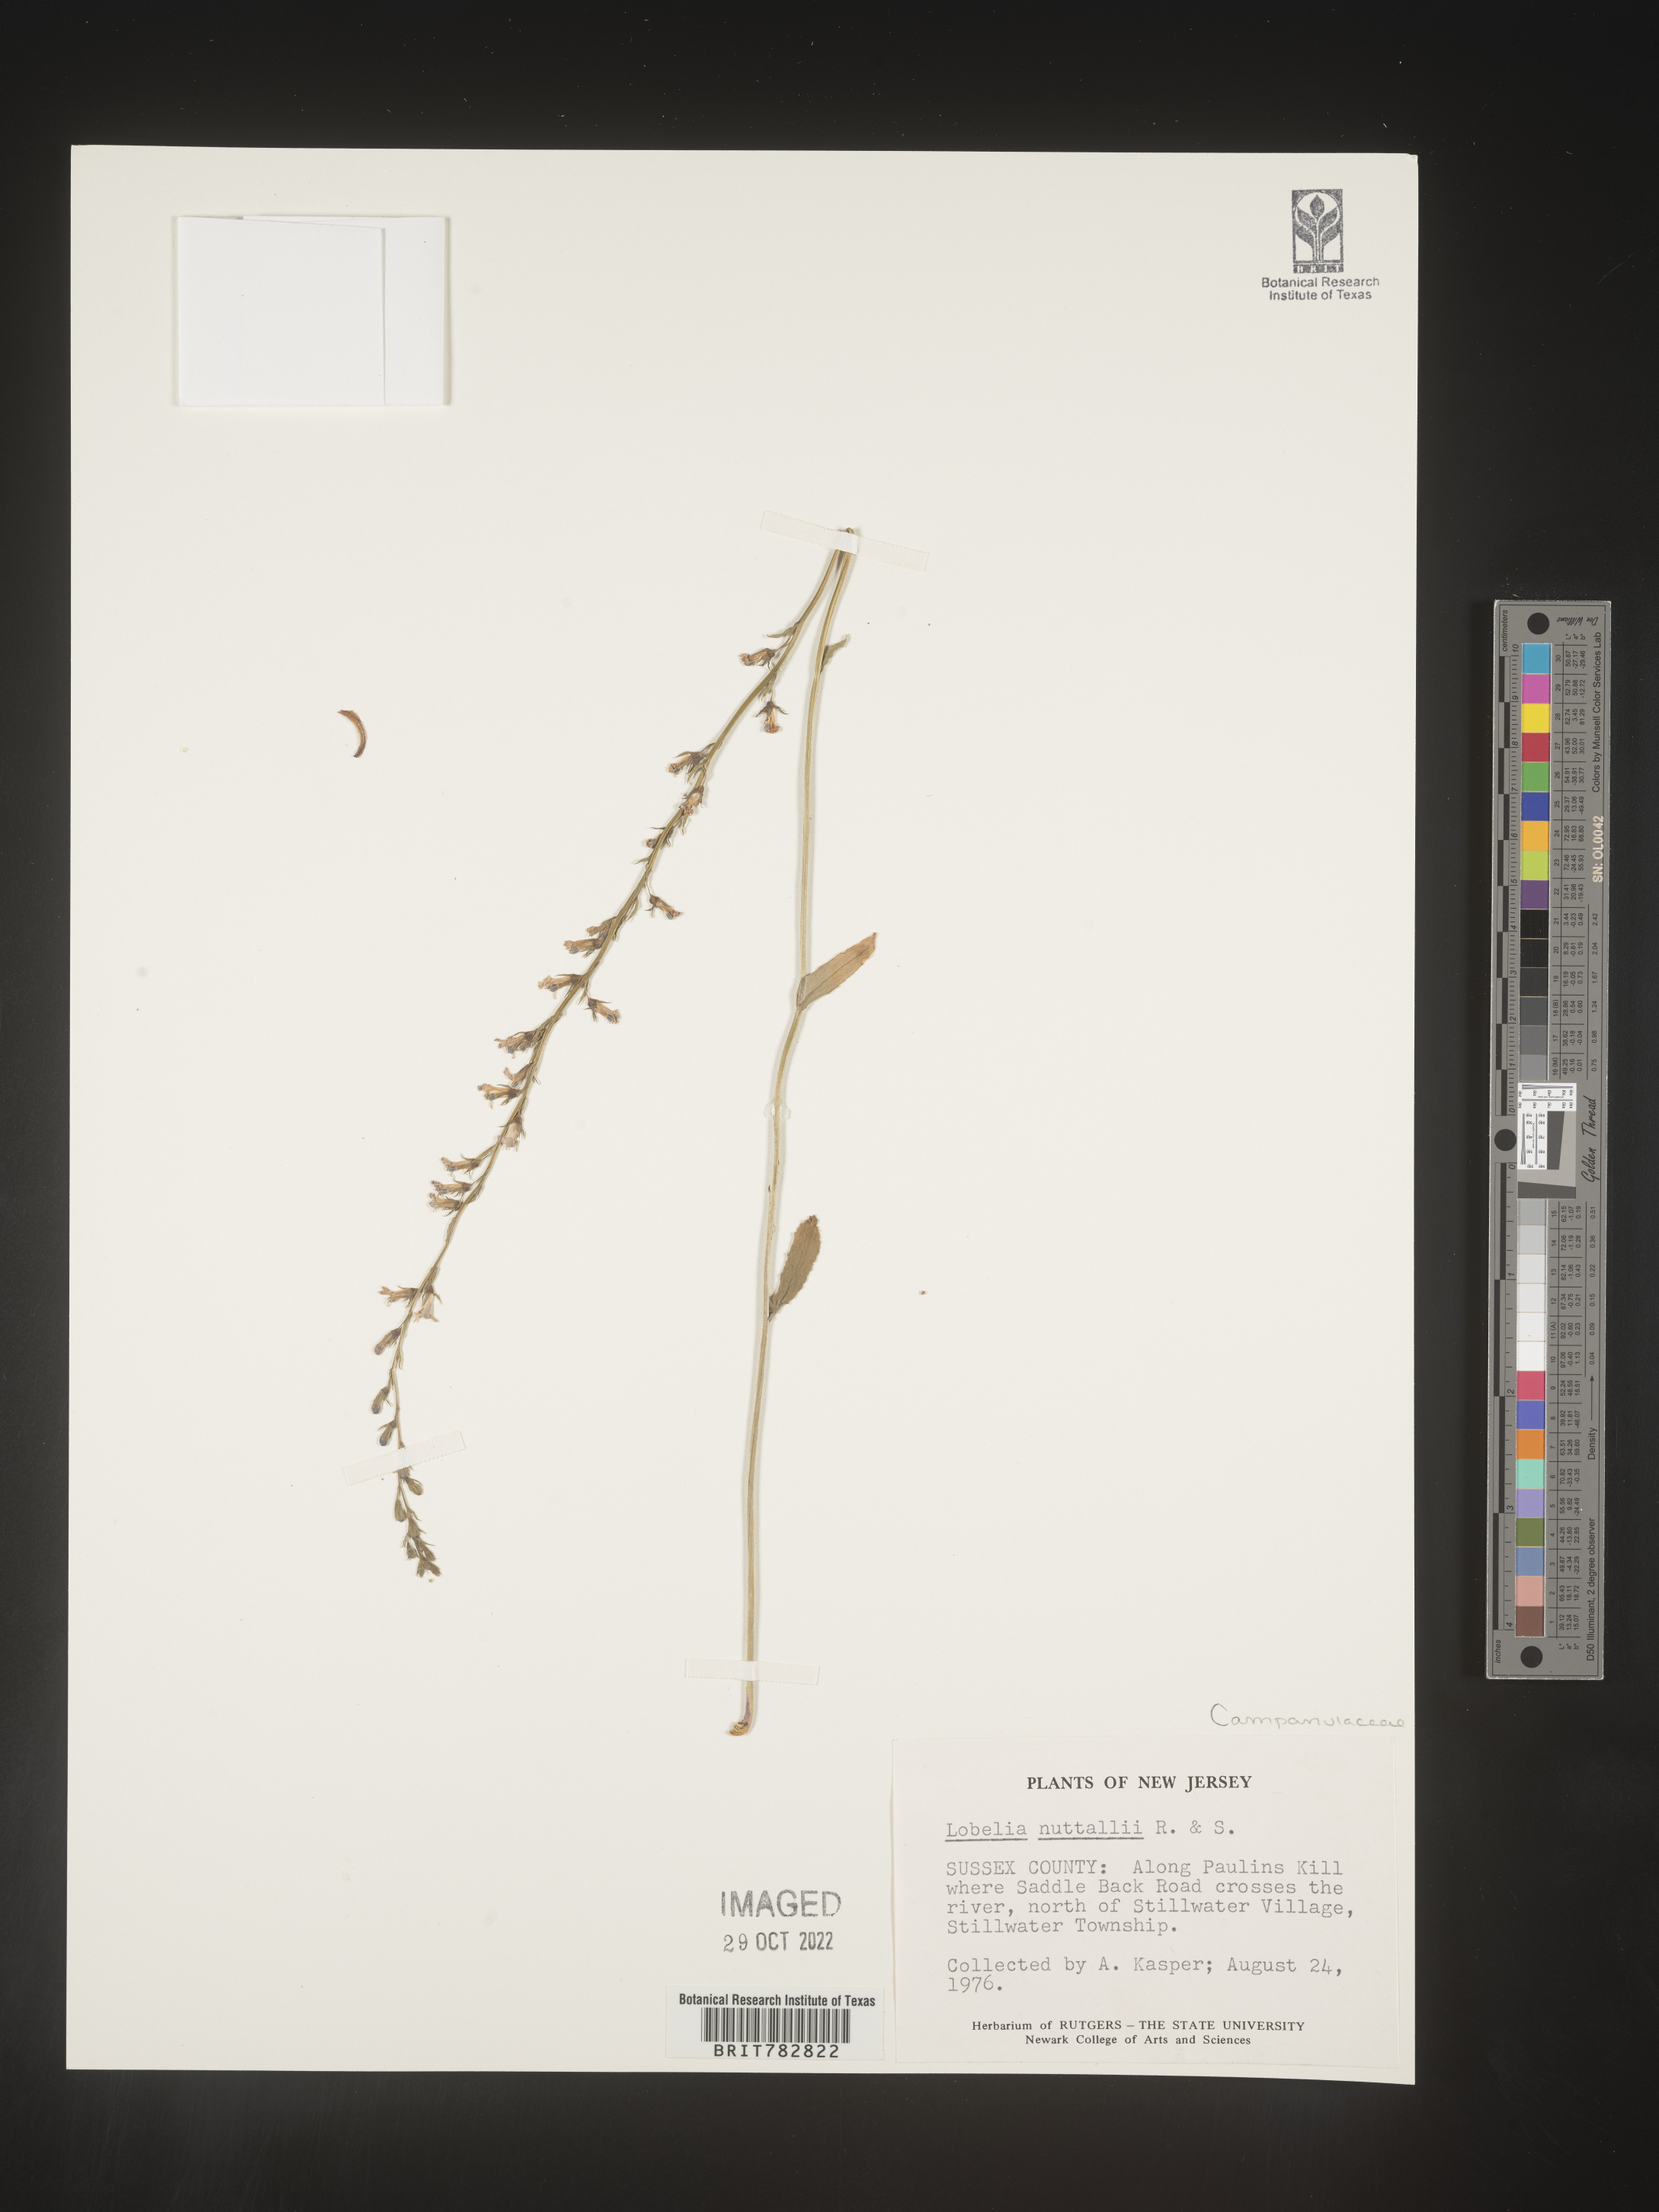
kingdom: Plantae
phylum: Tracheophyta
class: Magnoliopsida
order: Asterales
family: Campanulaceae
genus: Lobelia
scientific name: Lobelia nuttallii
